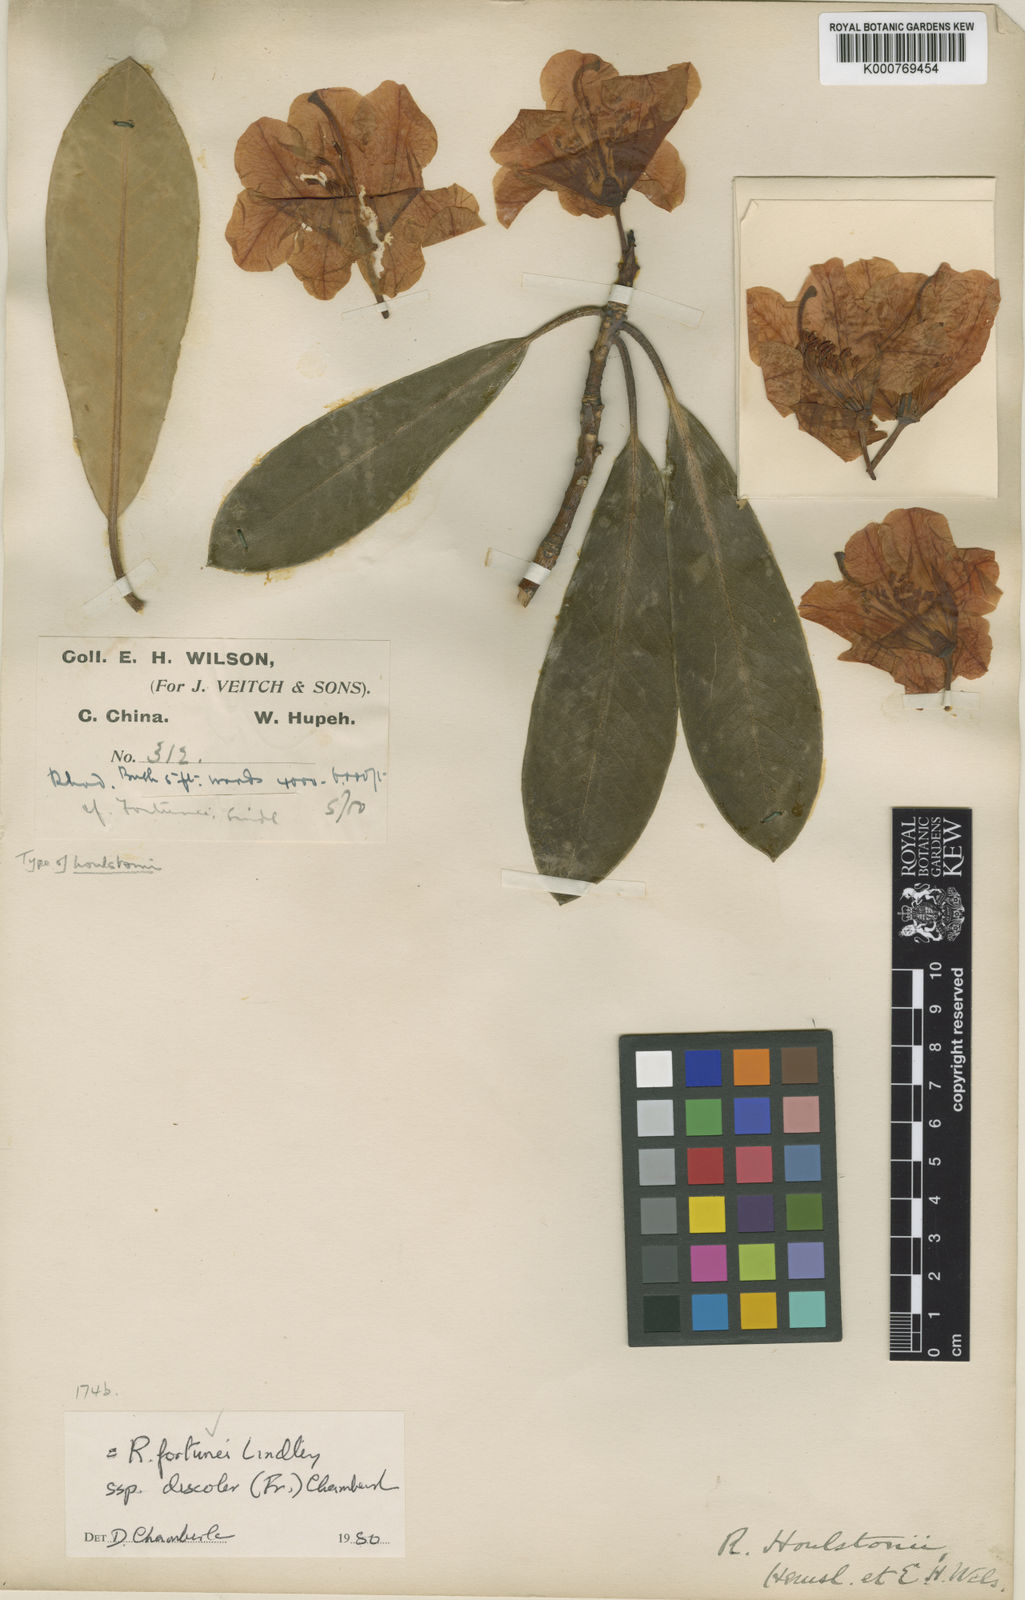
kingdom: Plantae
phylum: Tracheophyta
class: Magnoliopsida
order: Ericales
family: Ericaceae
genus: Rhododendron
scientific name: Rhododendron fortunei
